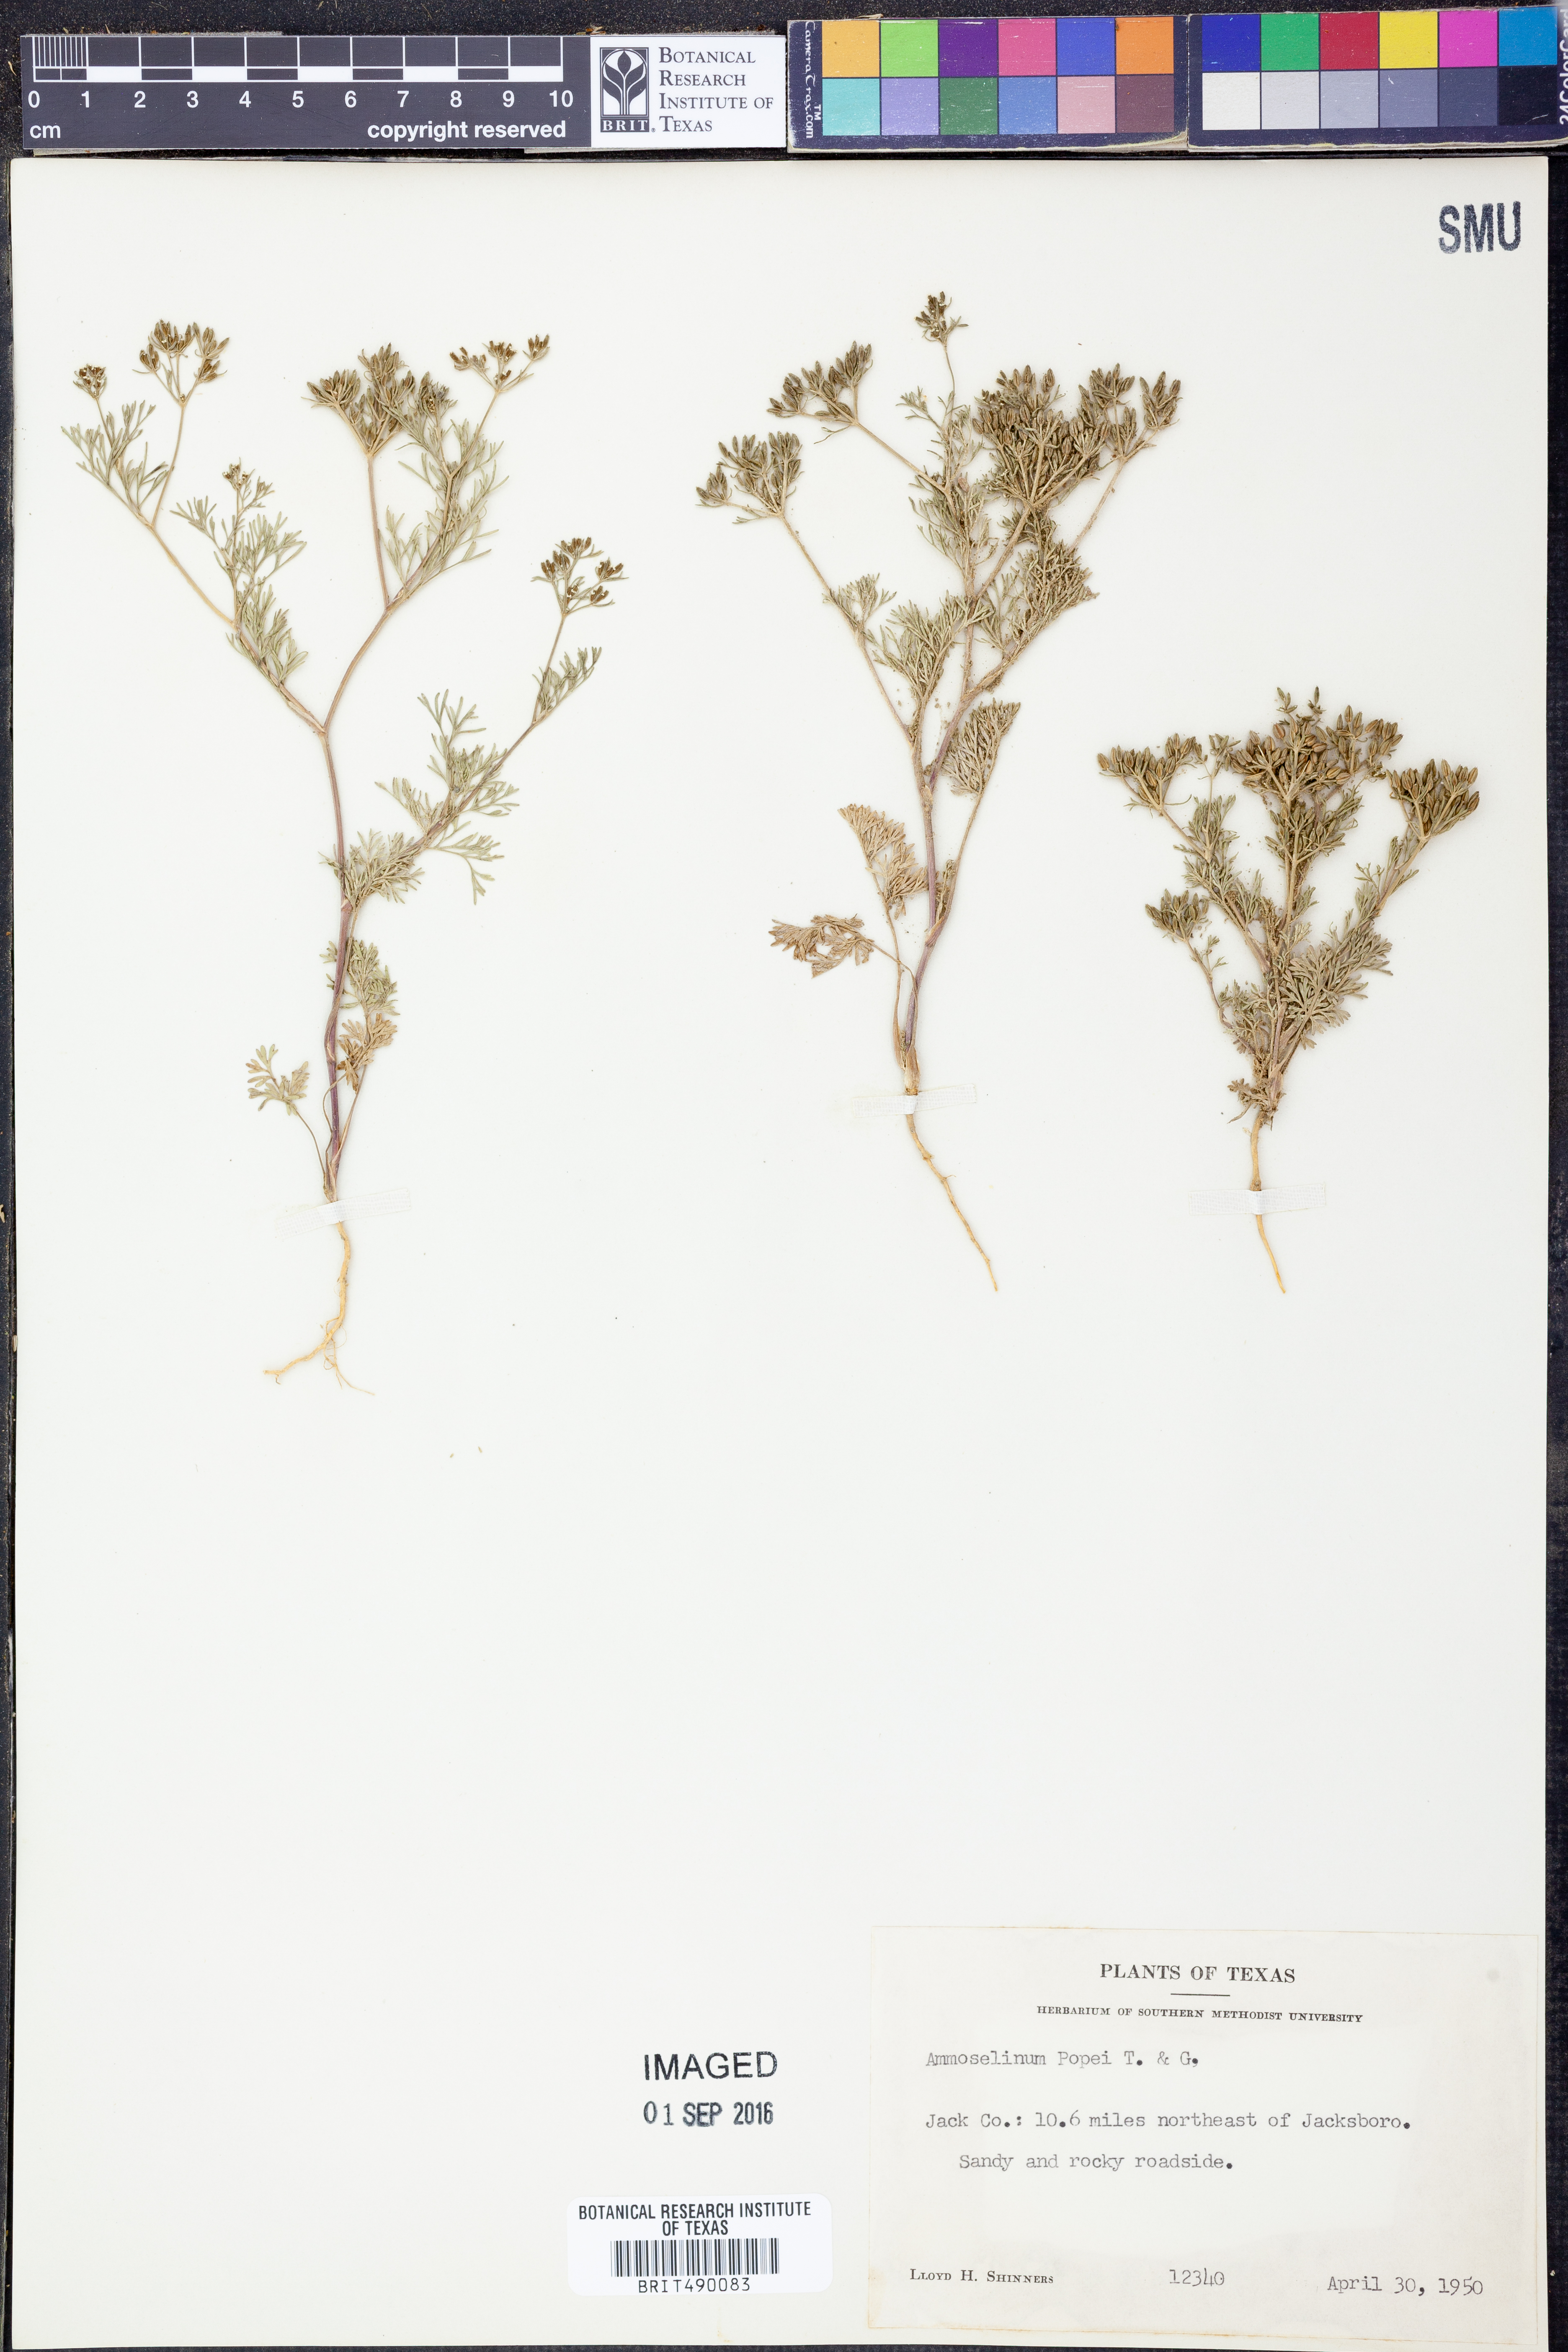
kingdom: Plantae
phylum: Tracheophyta
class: Magnoliopsida
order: Apiales
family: Apiaceae
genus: Ammoselinum
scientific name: Ammoselinum popei
